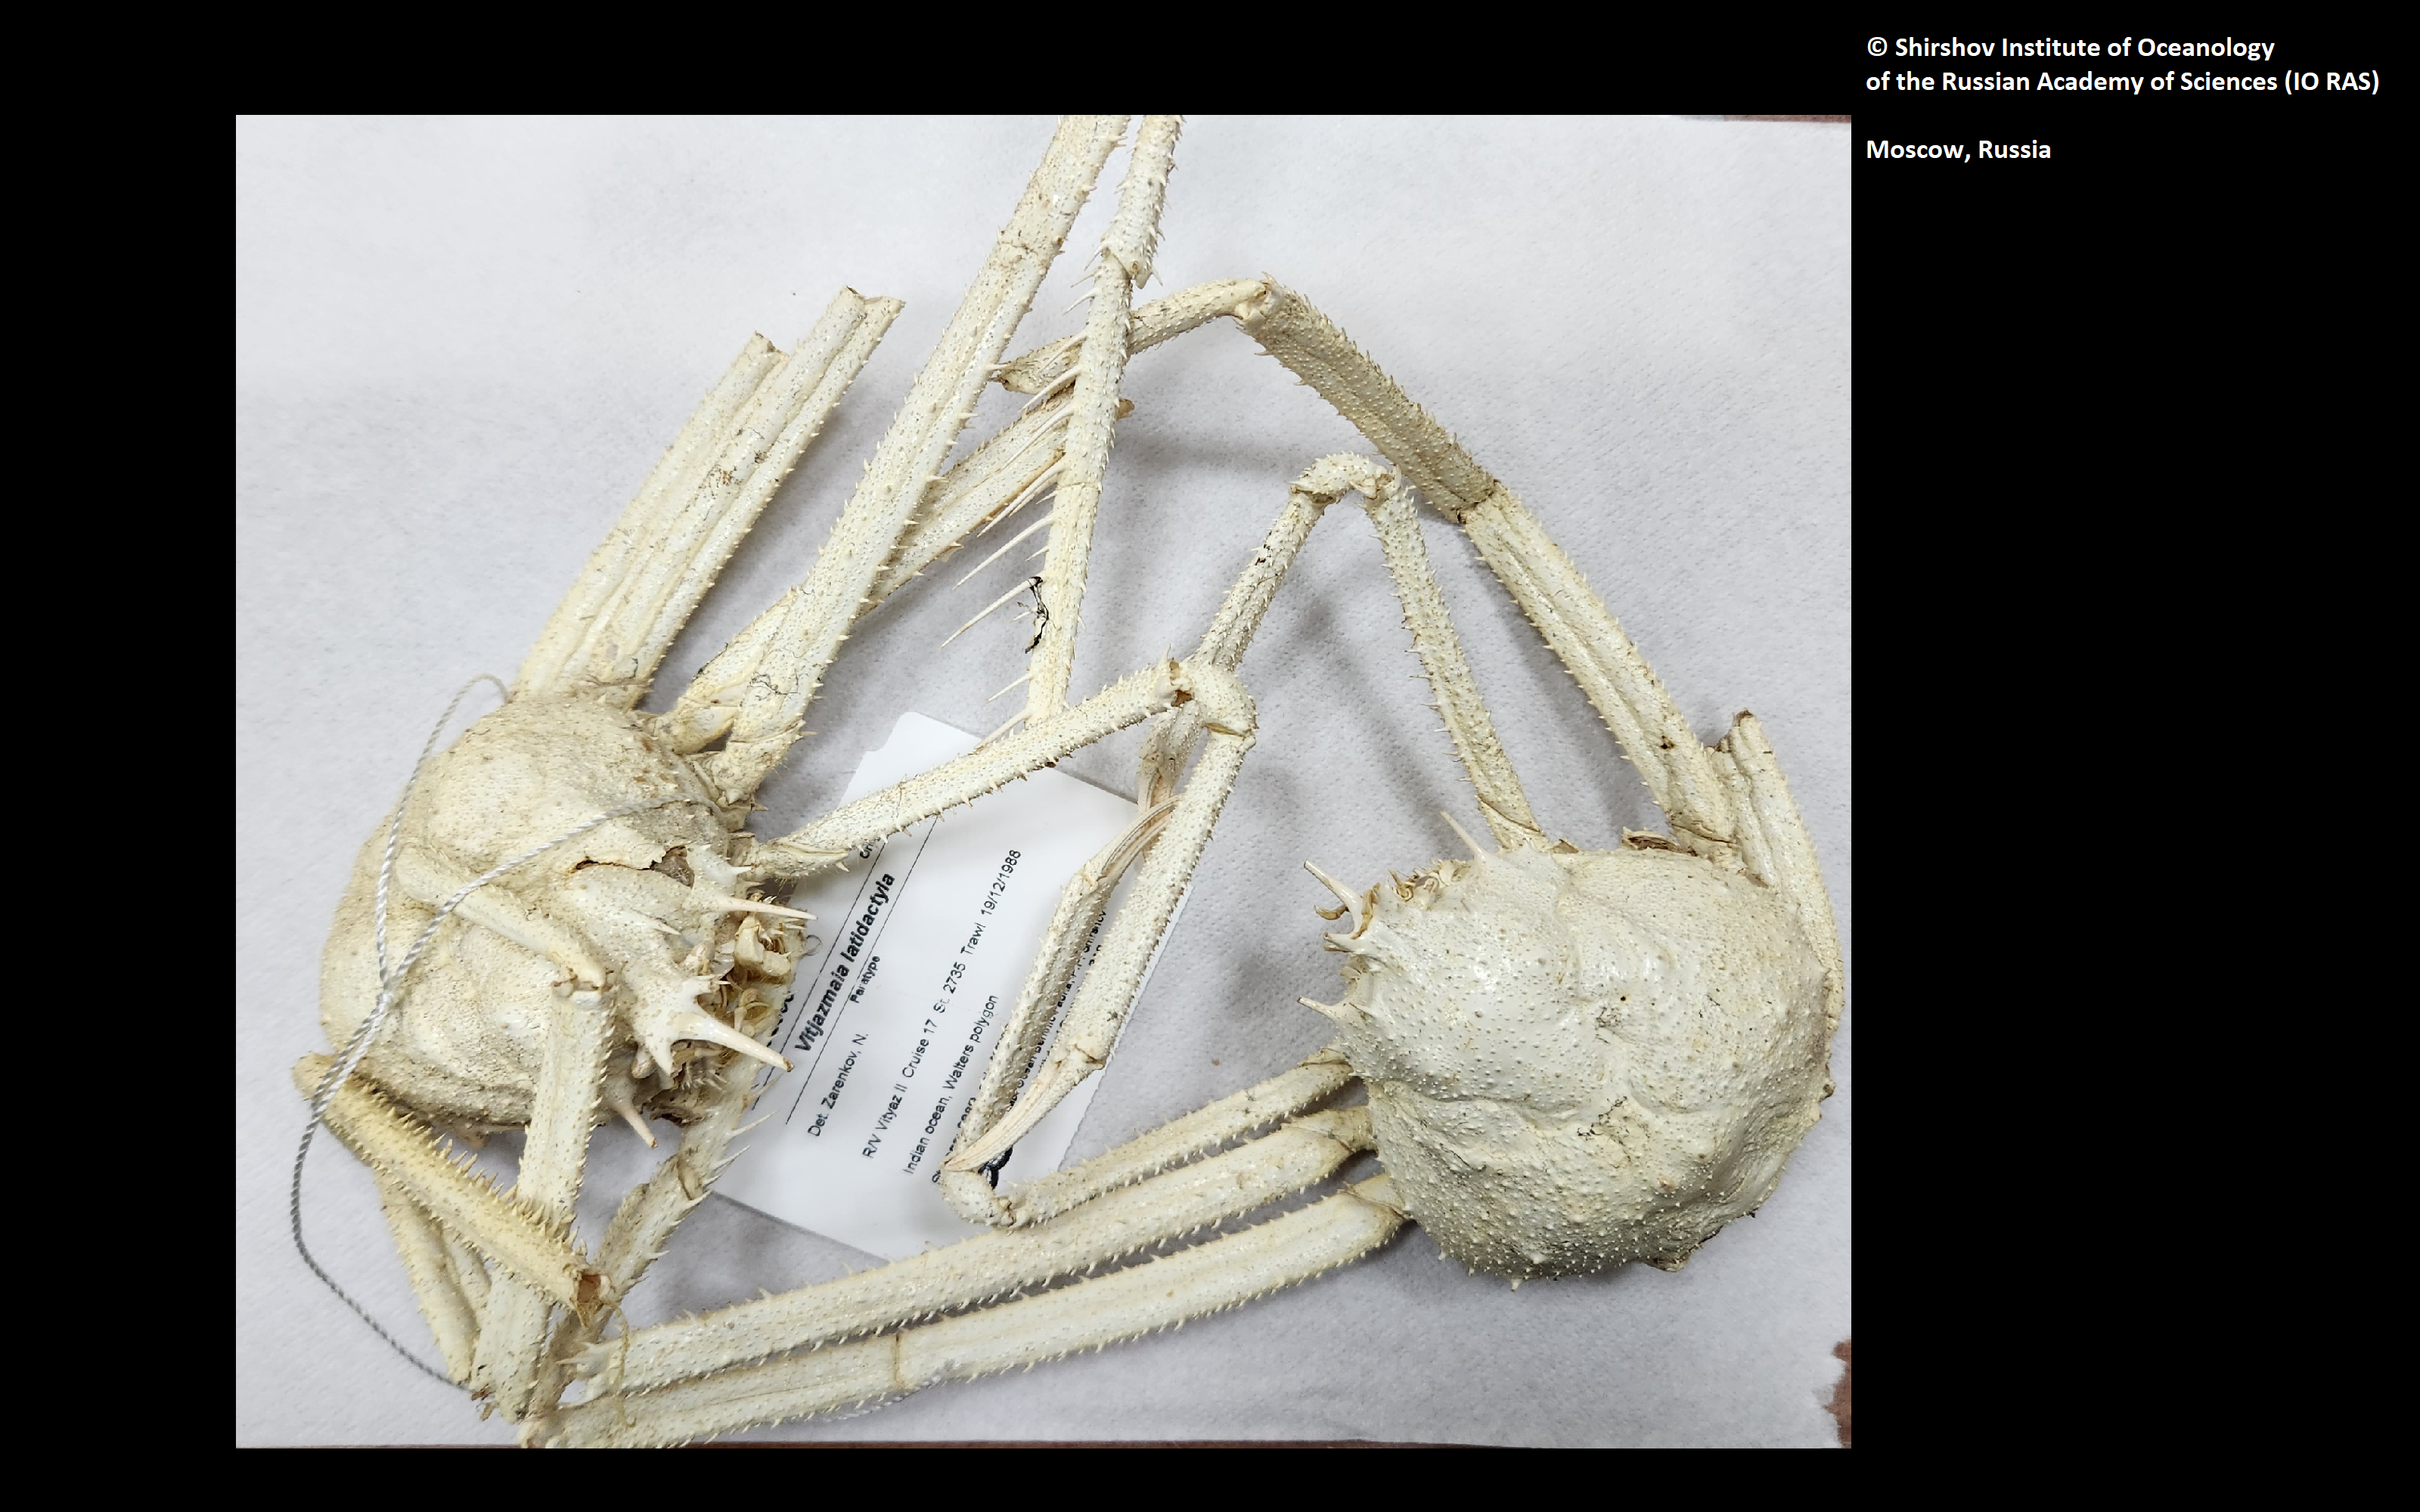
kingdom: Animalia
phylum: Arthropoda
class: Malacostraca
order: Decapoda
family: Oregoniidae
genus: Vitjazmaia
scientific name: Vitjazmaia latidactyla
